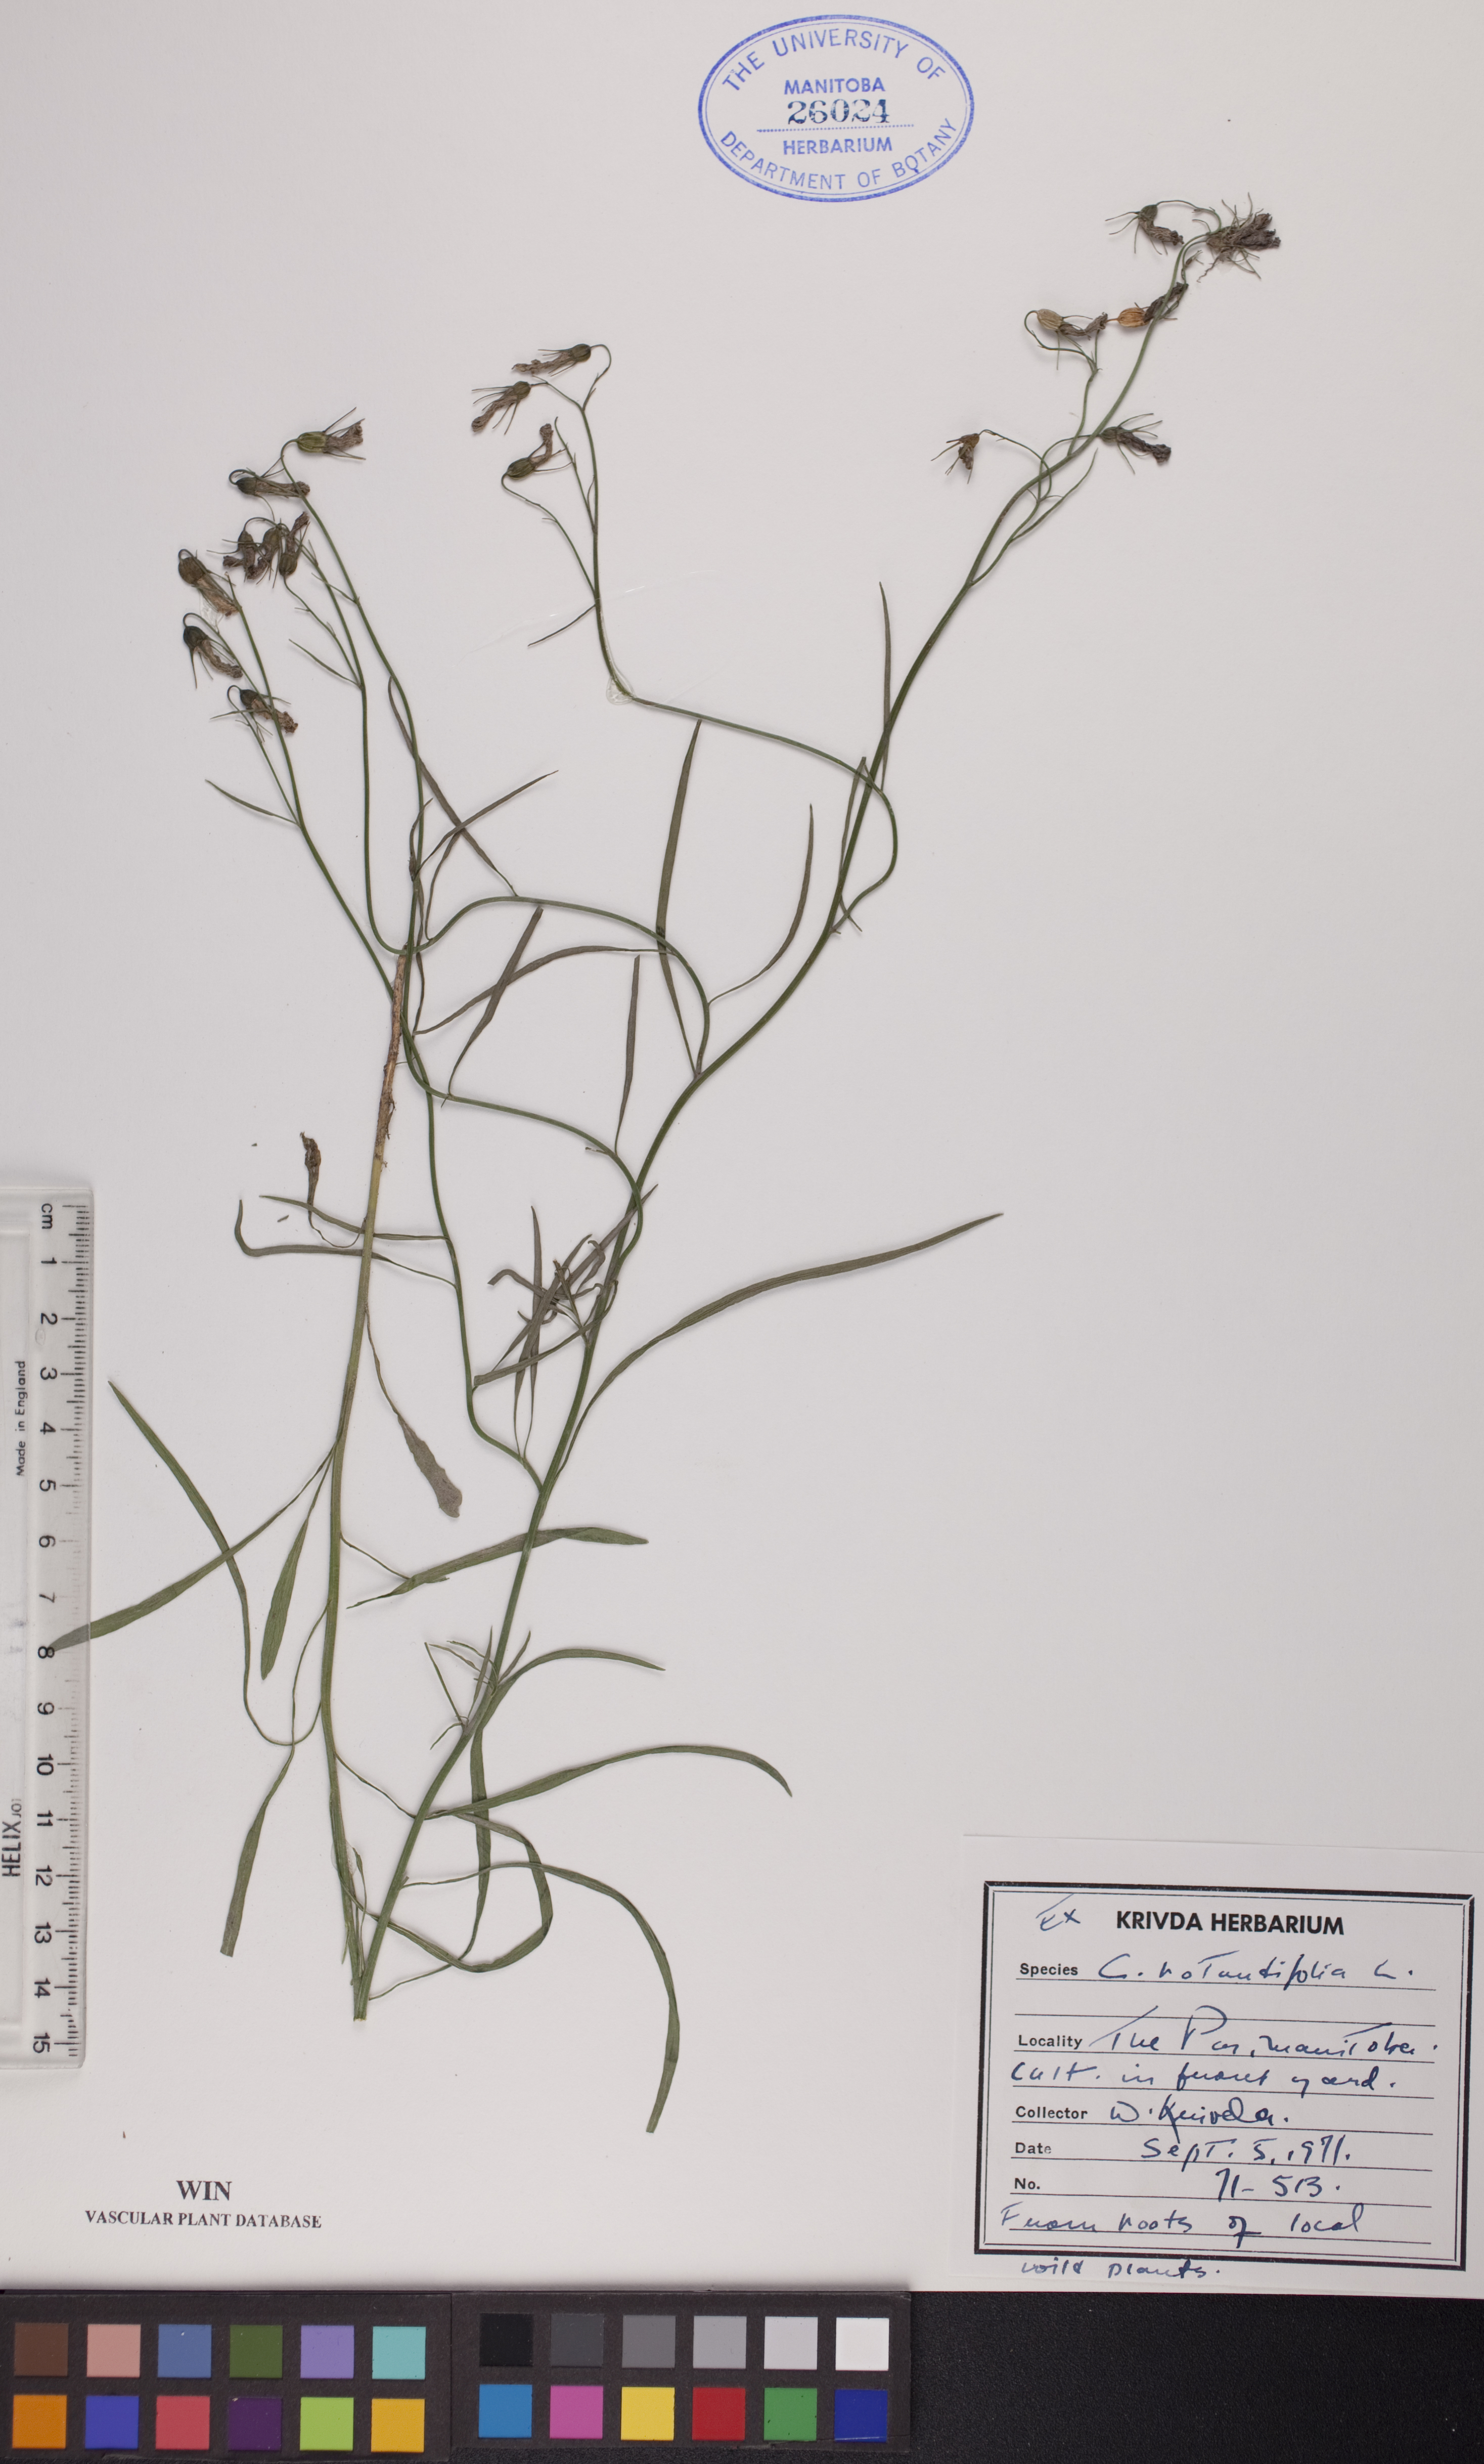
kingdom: Plantae
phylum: Tracheophyta
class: Magnoliopsida
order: Asterales
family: Campanulaceae
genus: Campanula
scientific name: Campanula rotundifolia
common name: Harebell
